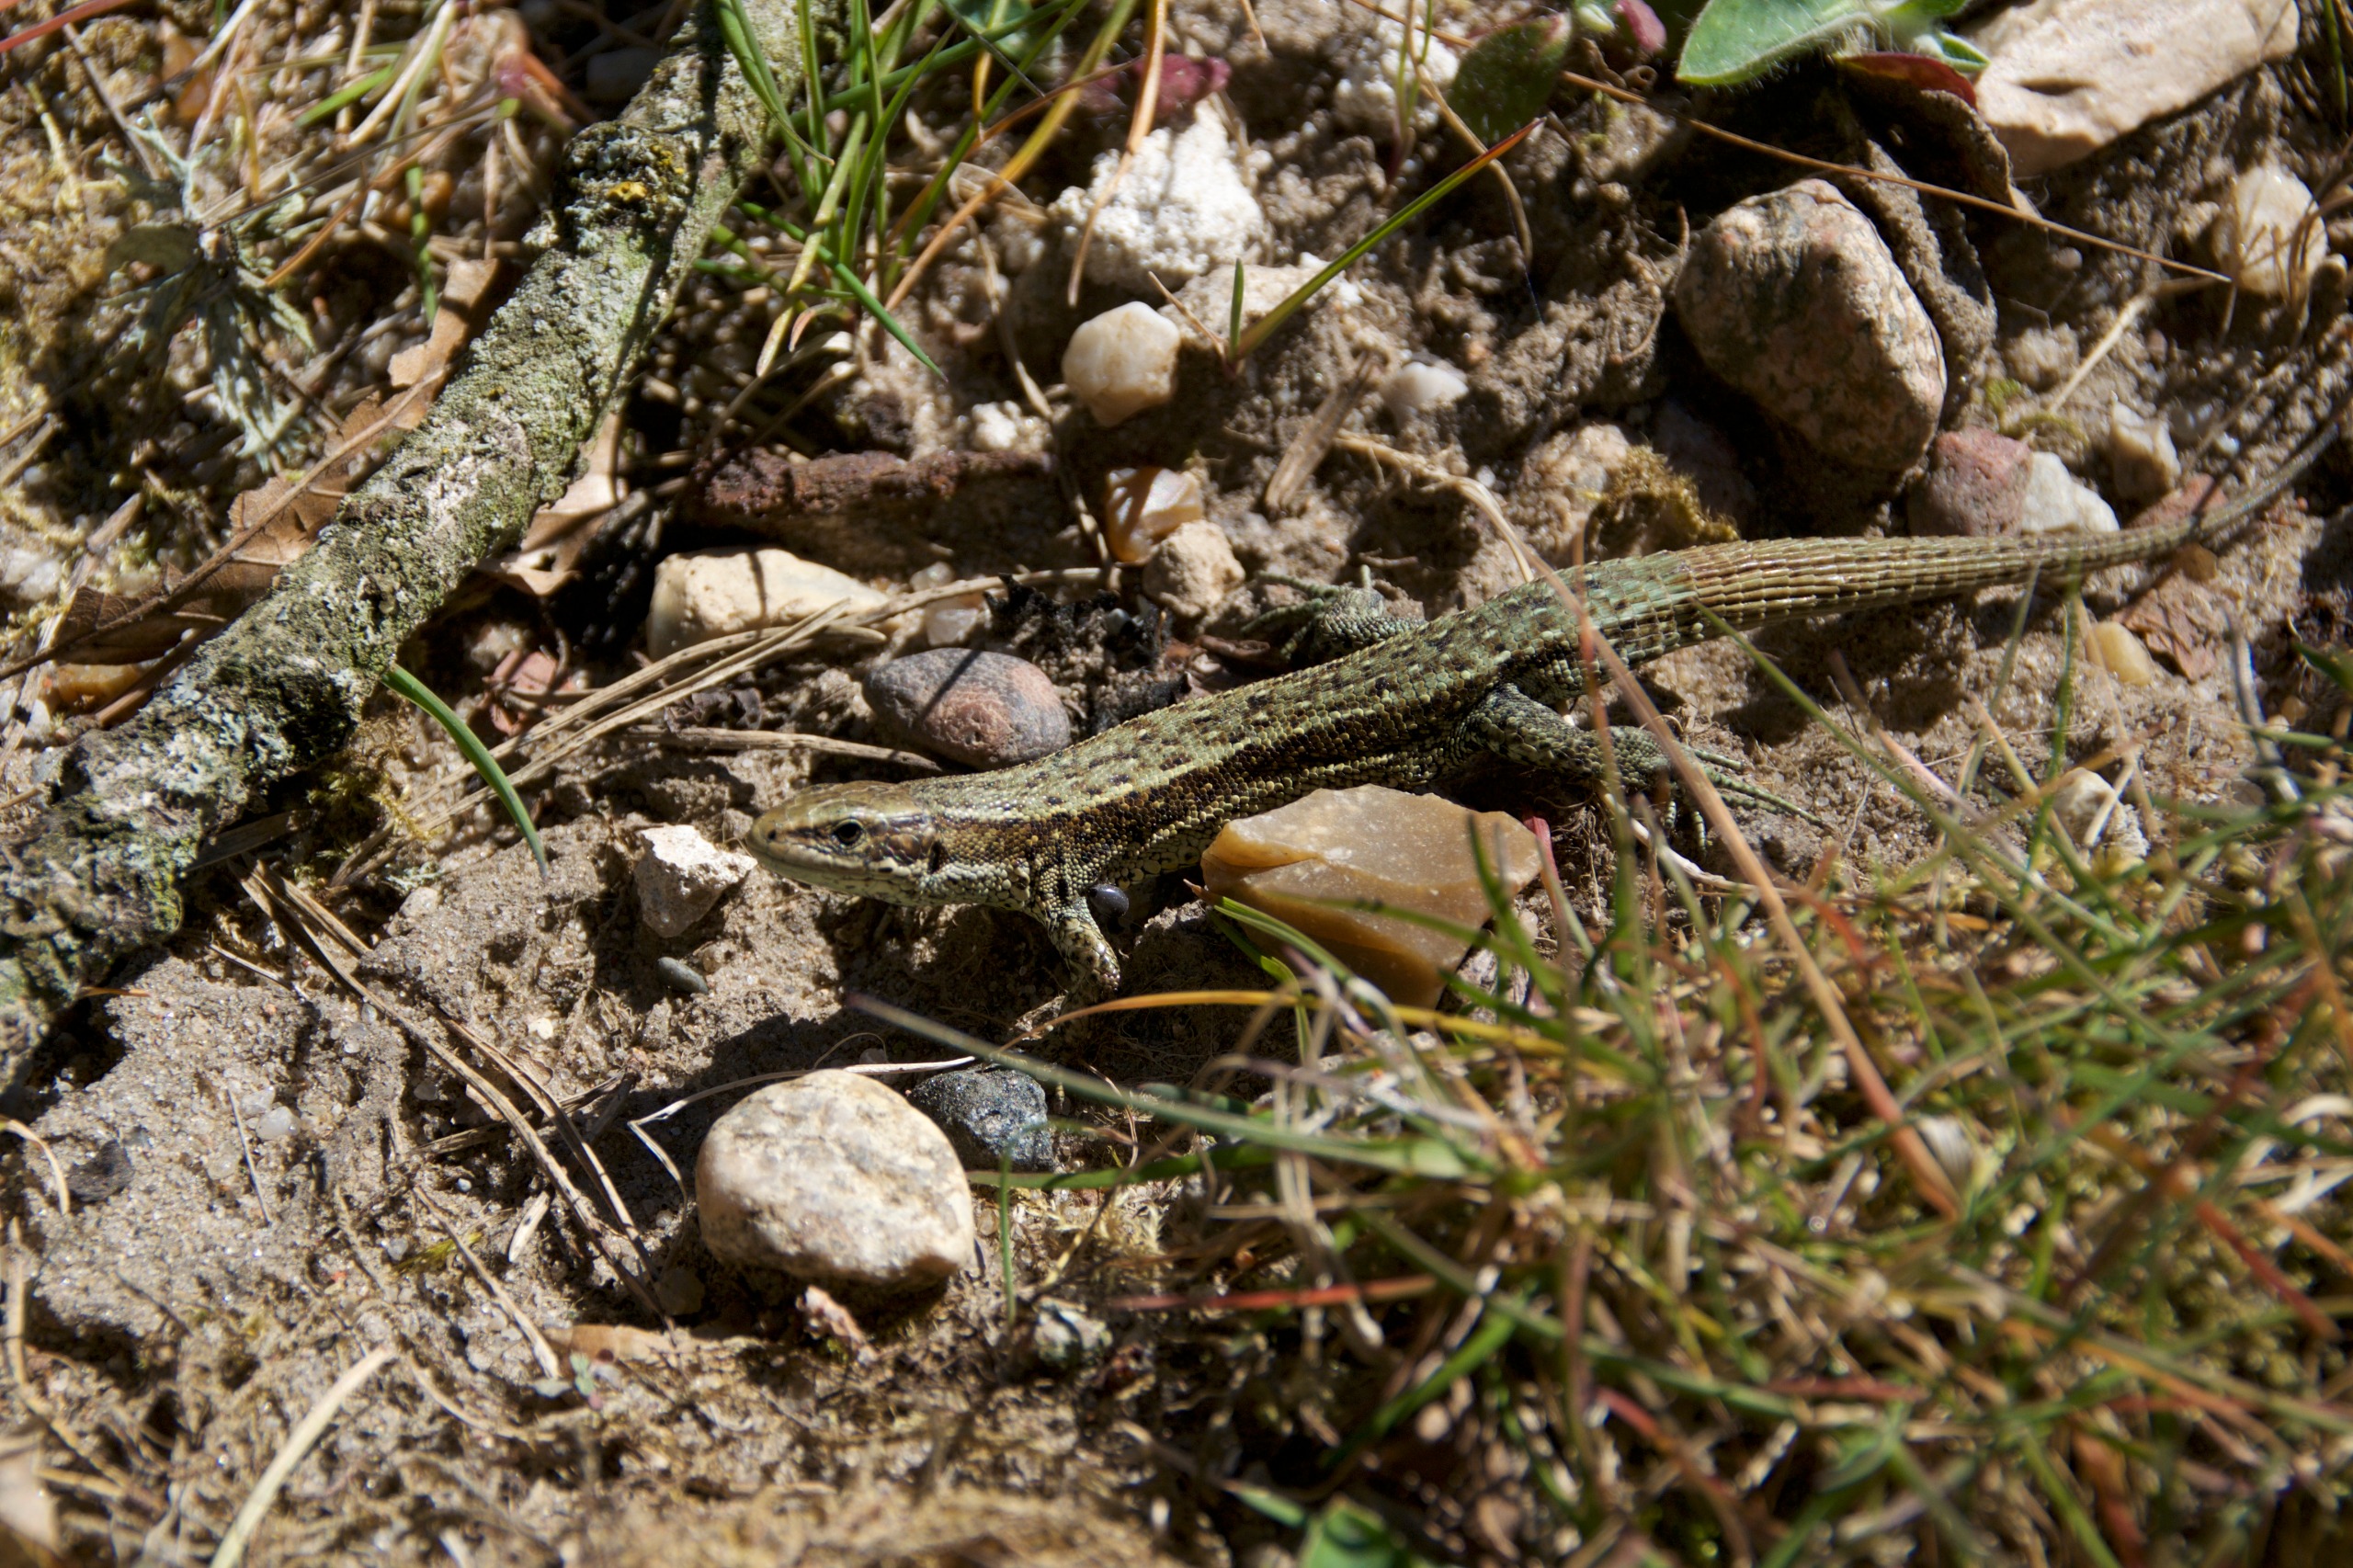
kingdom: Animalia
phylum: Chordata
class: Squamata
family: Lacertidae
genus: Zootoca
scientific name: Zootoca vivipara
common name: Skovfirben
